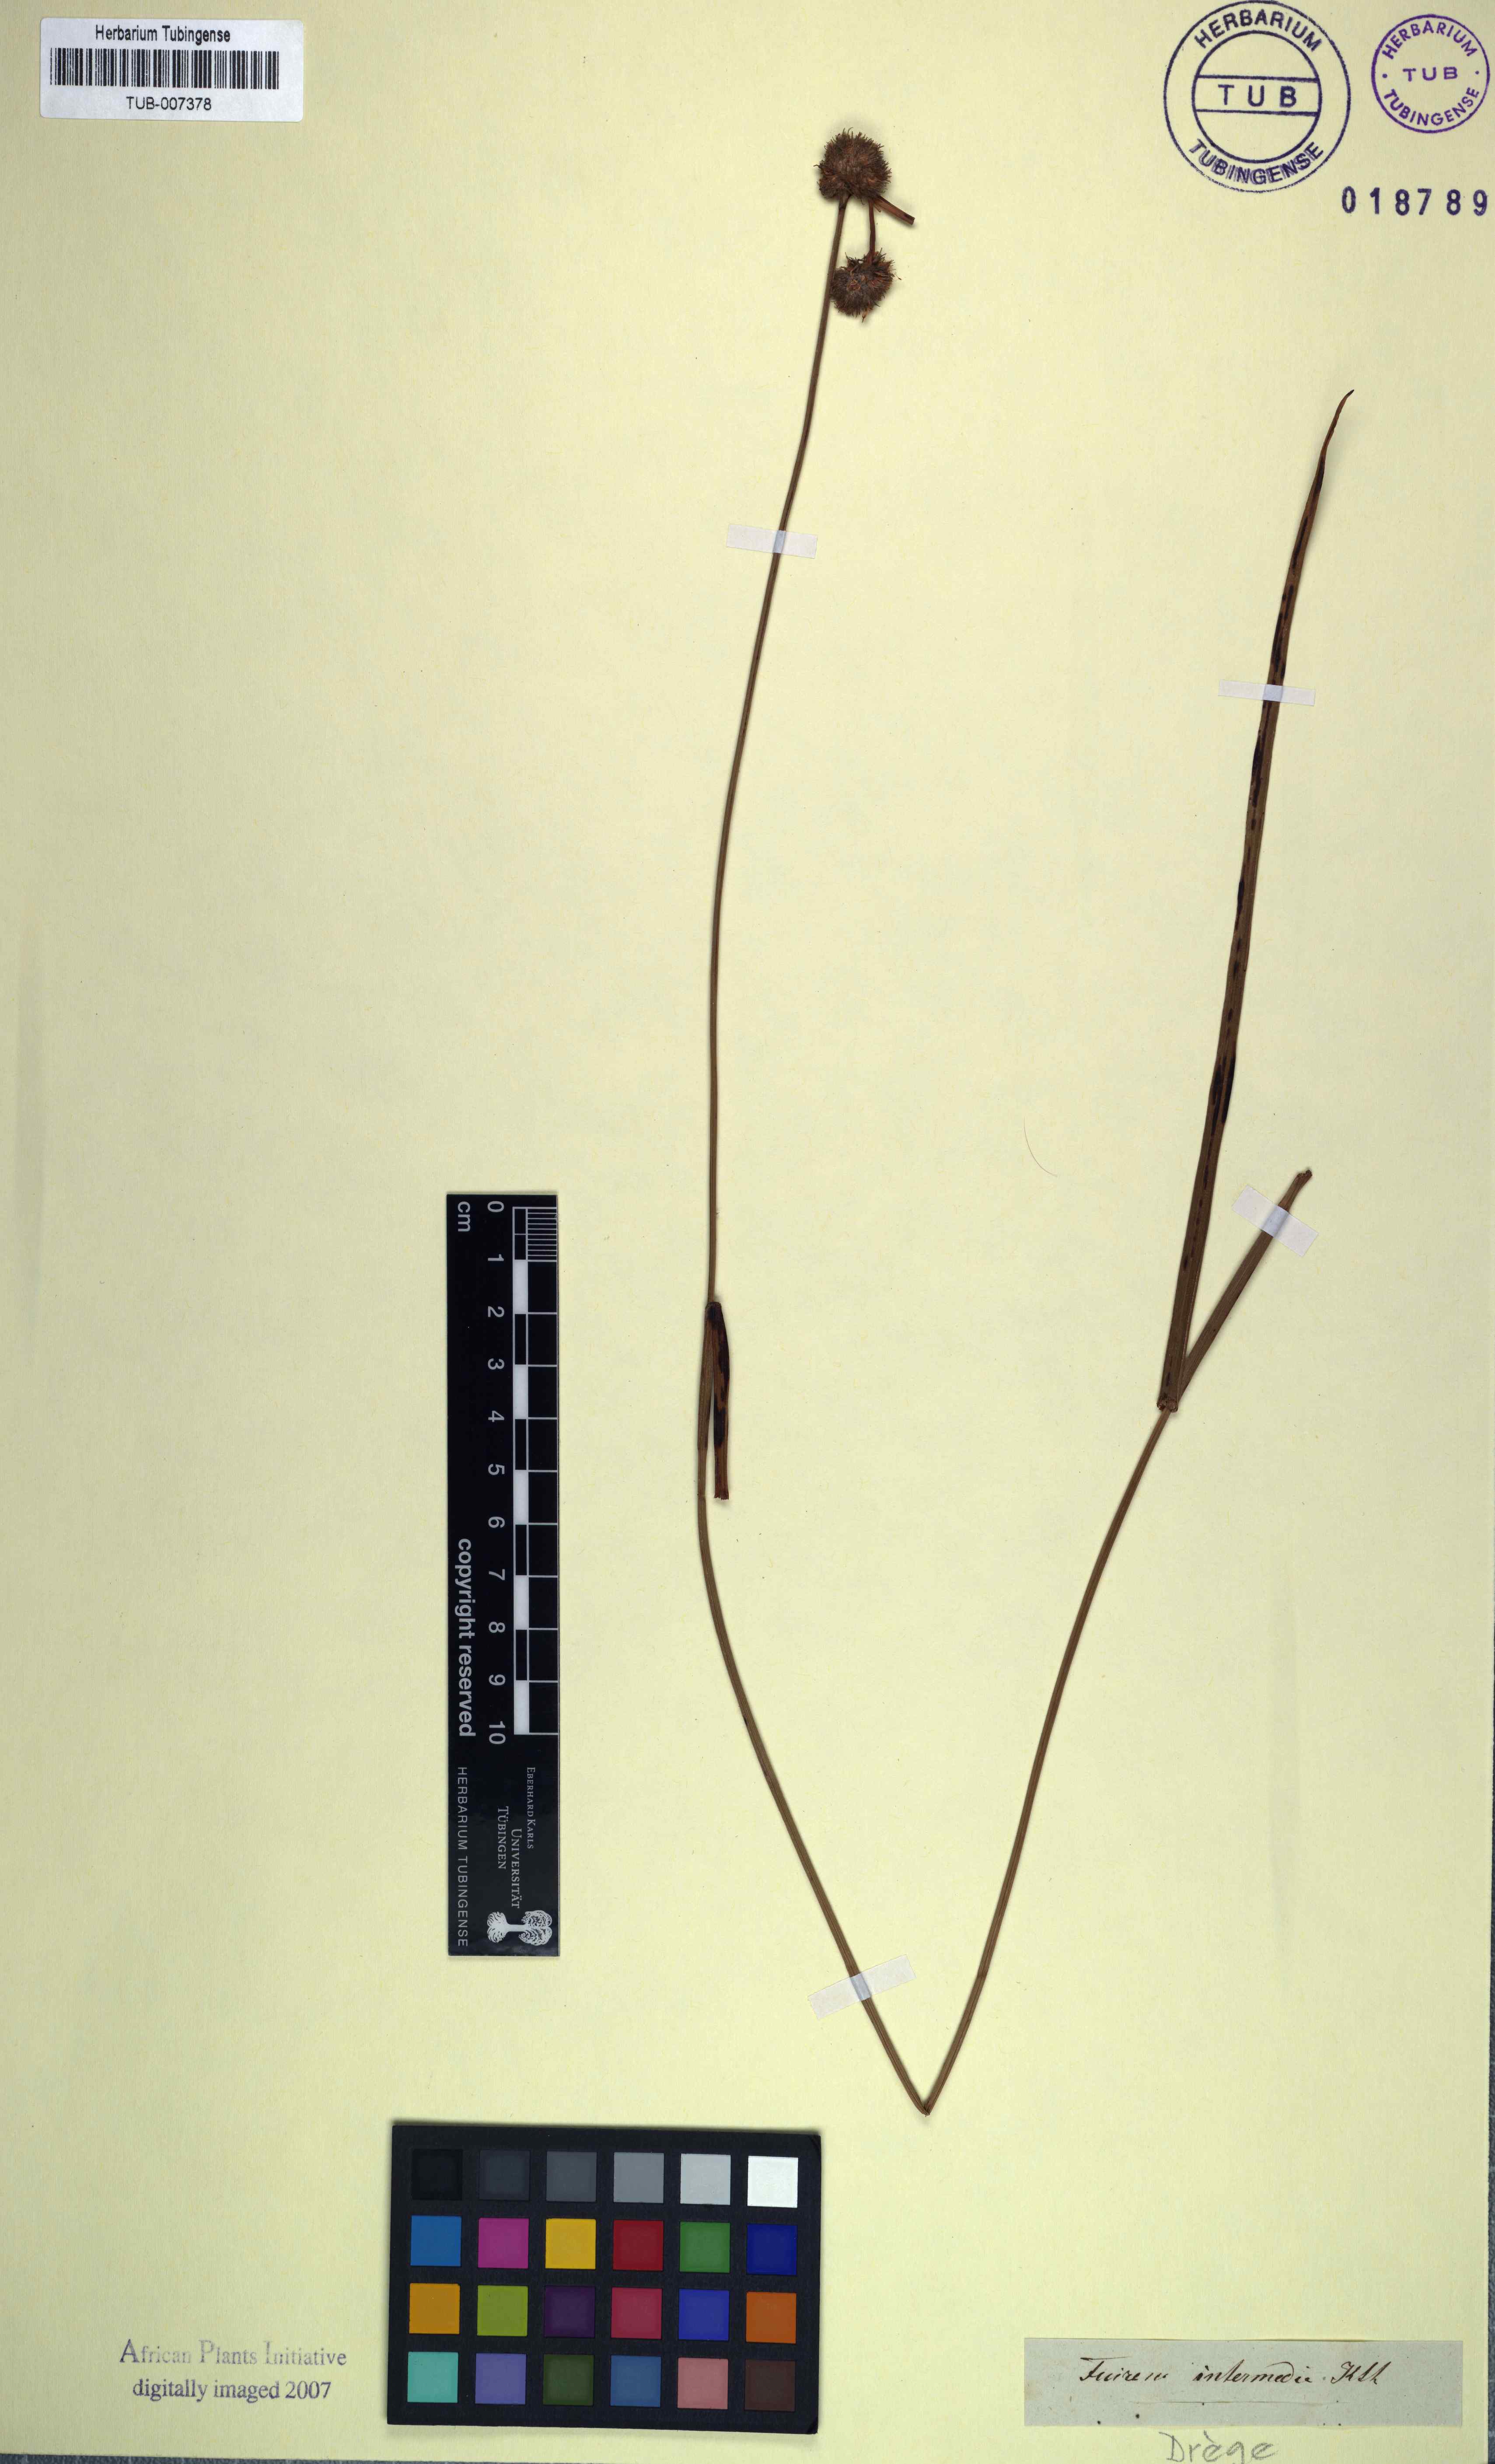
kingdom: Plantae
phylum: Tracheophyta
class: Liliopsida
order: Poales
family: Cyperaceae
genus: Fuirena
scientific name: Fuirena hirsuta
